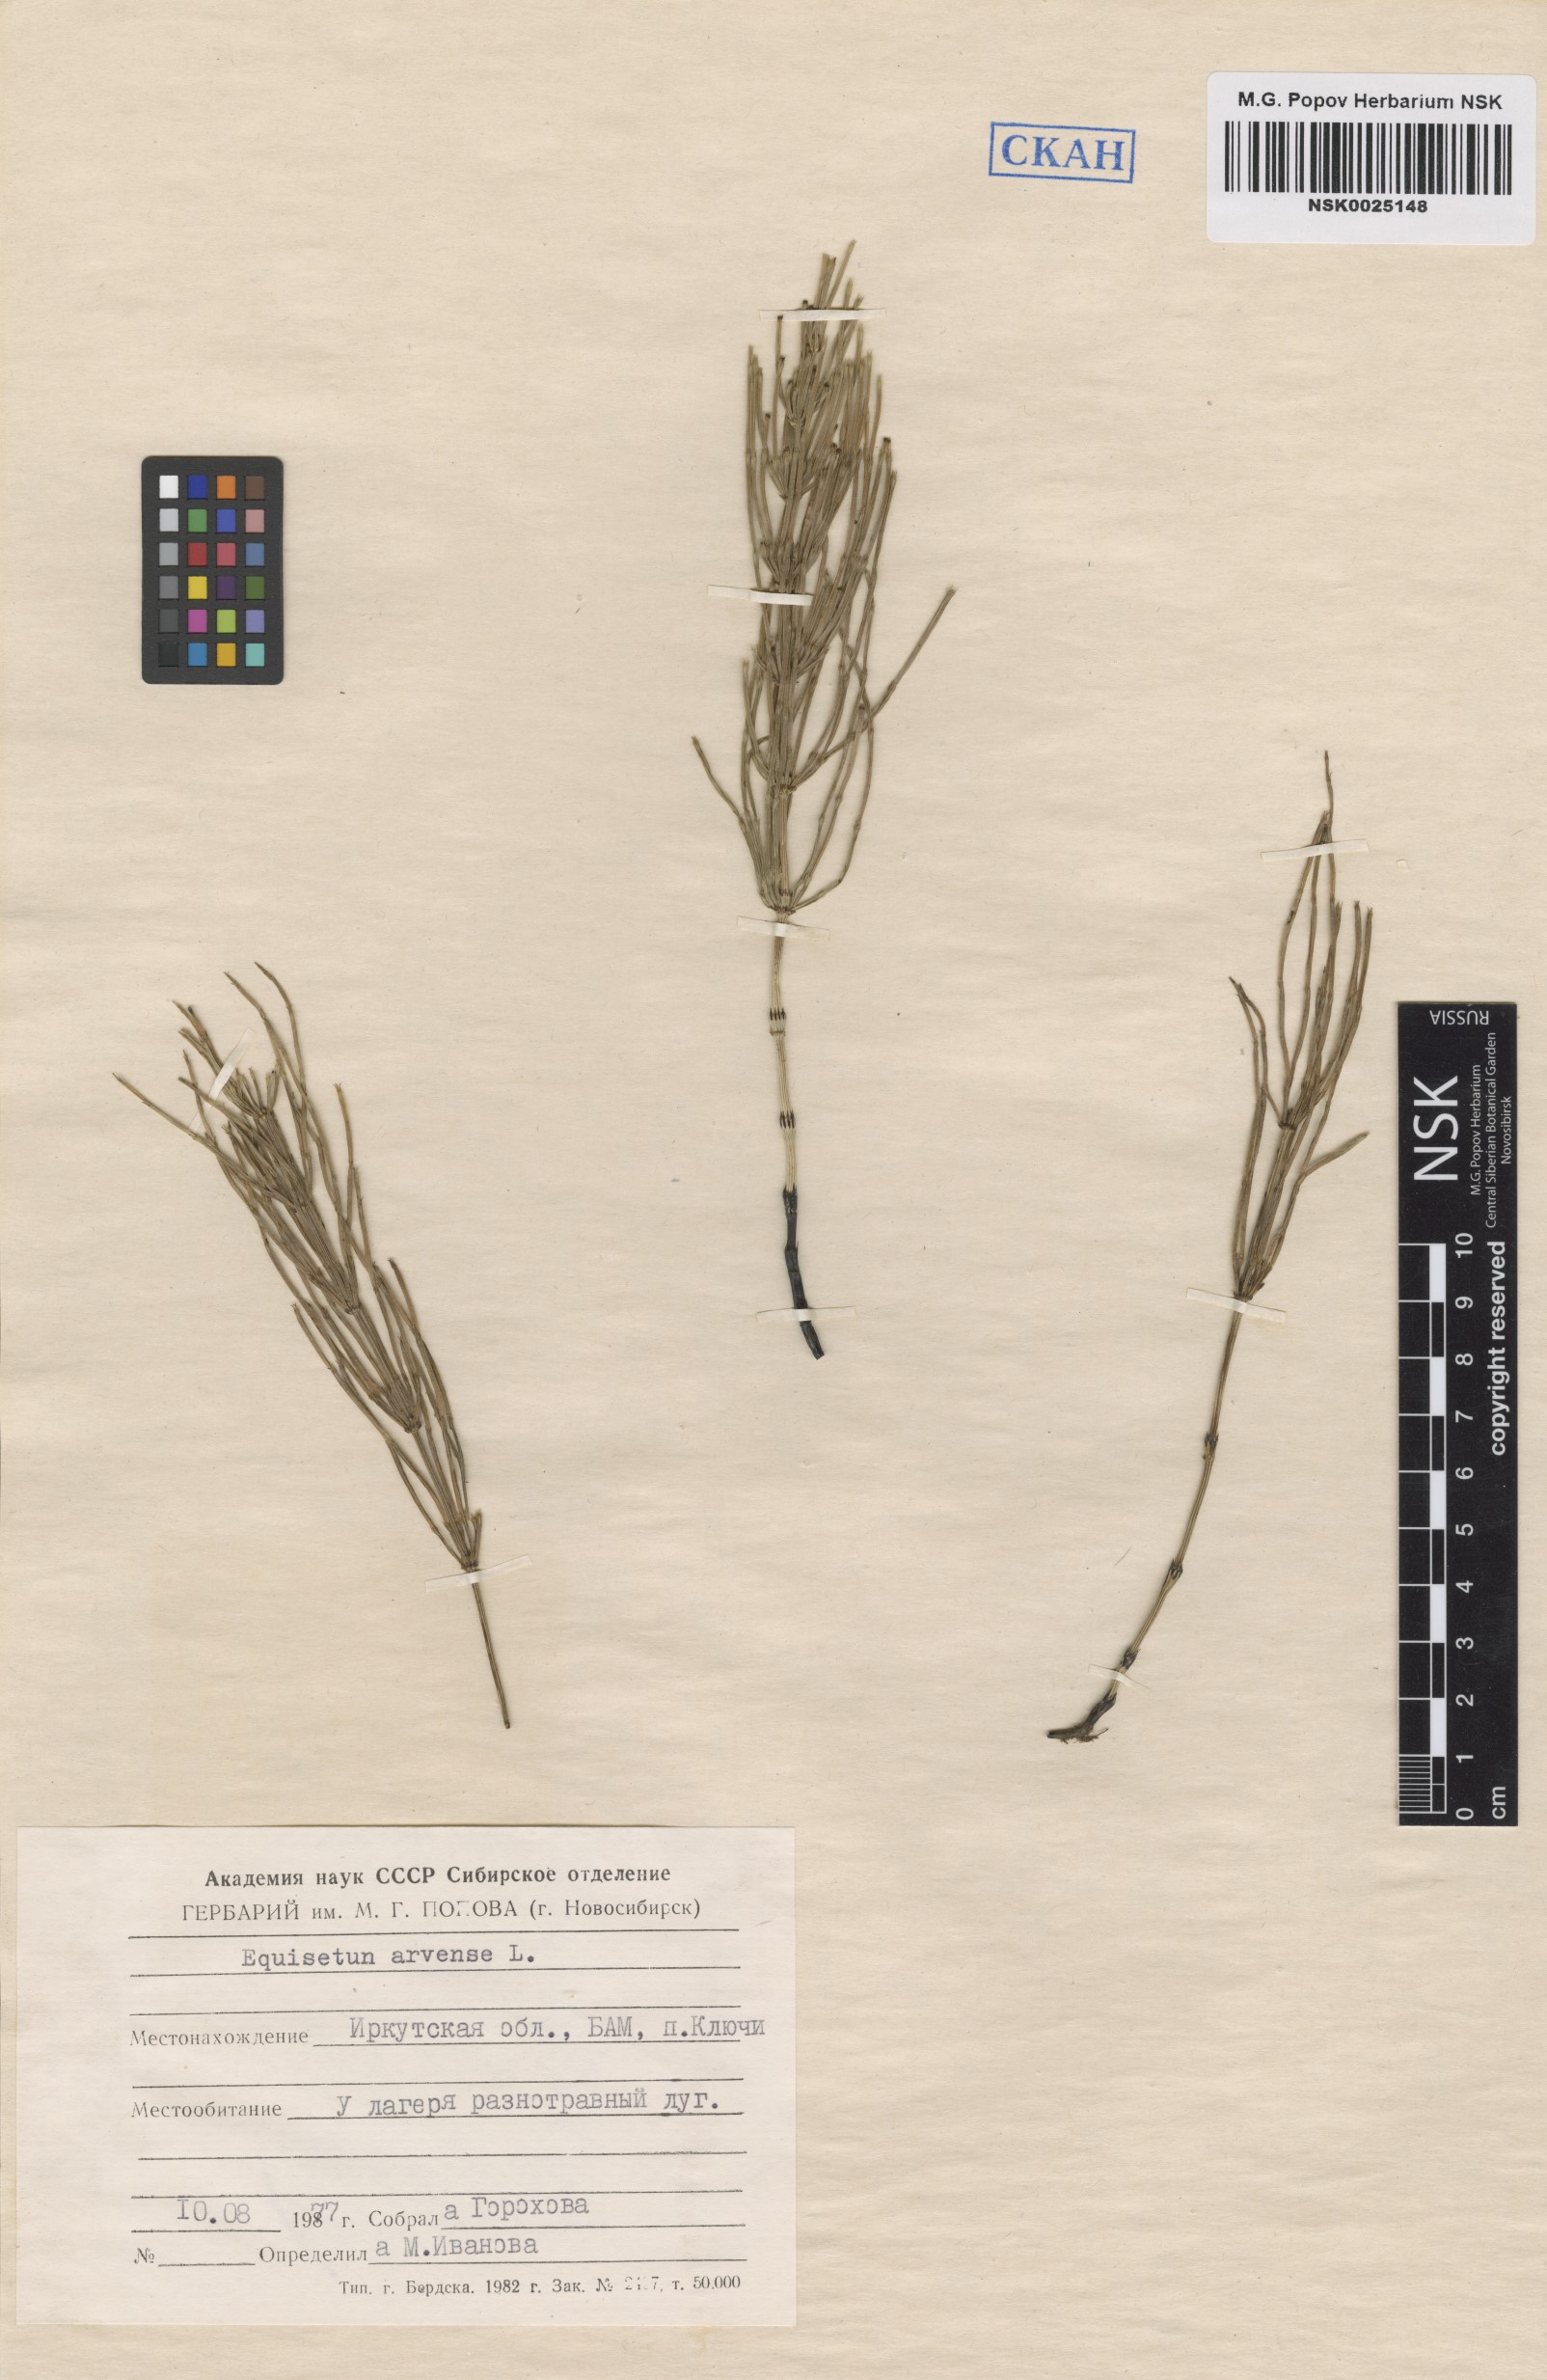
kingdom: Plantae
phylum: Tracheophyta
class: Polypodiopsida
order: Equisetales
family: Equisetaceae
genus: Equisetum
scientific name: Equisetum arvense
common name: Field horsetail
